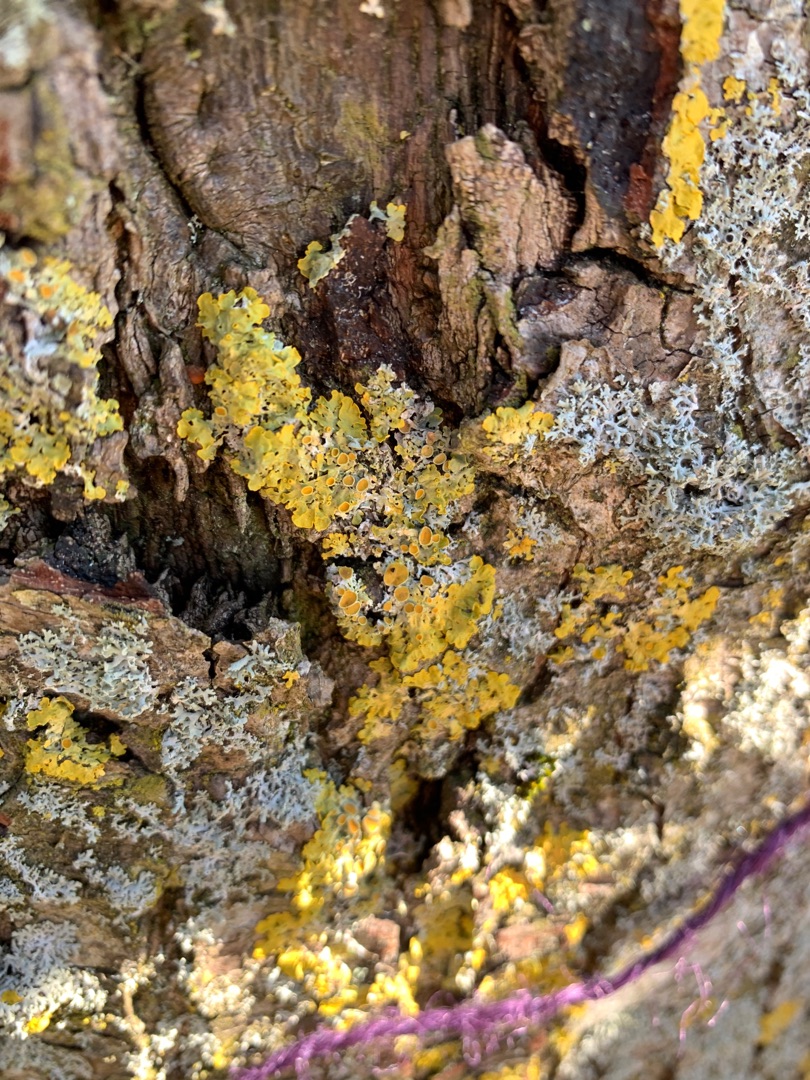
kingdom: Fungi
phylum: Ascomycota
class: Lecanoromycetes
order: Teloschistales
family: Teloschistaceae
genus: Xanthoria
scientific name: Xanthoria parietina
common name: Almindelig væggelav
